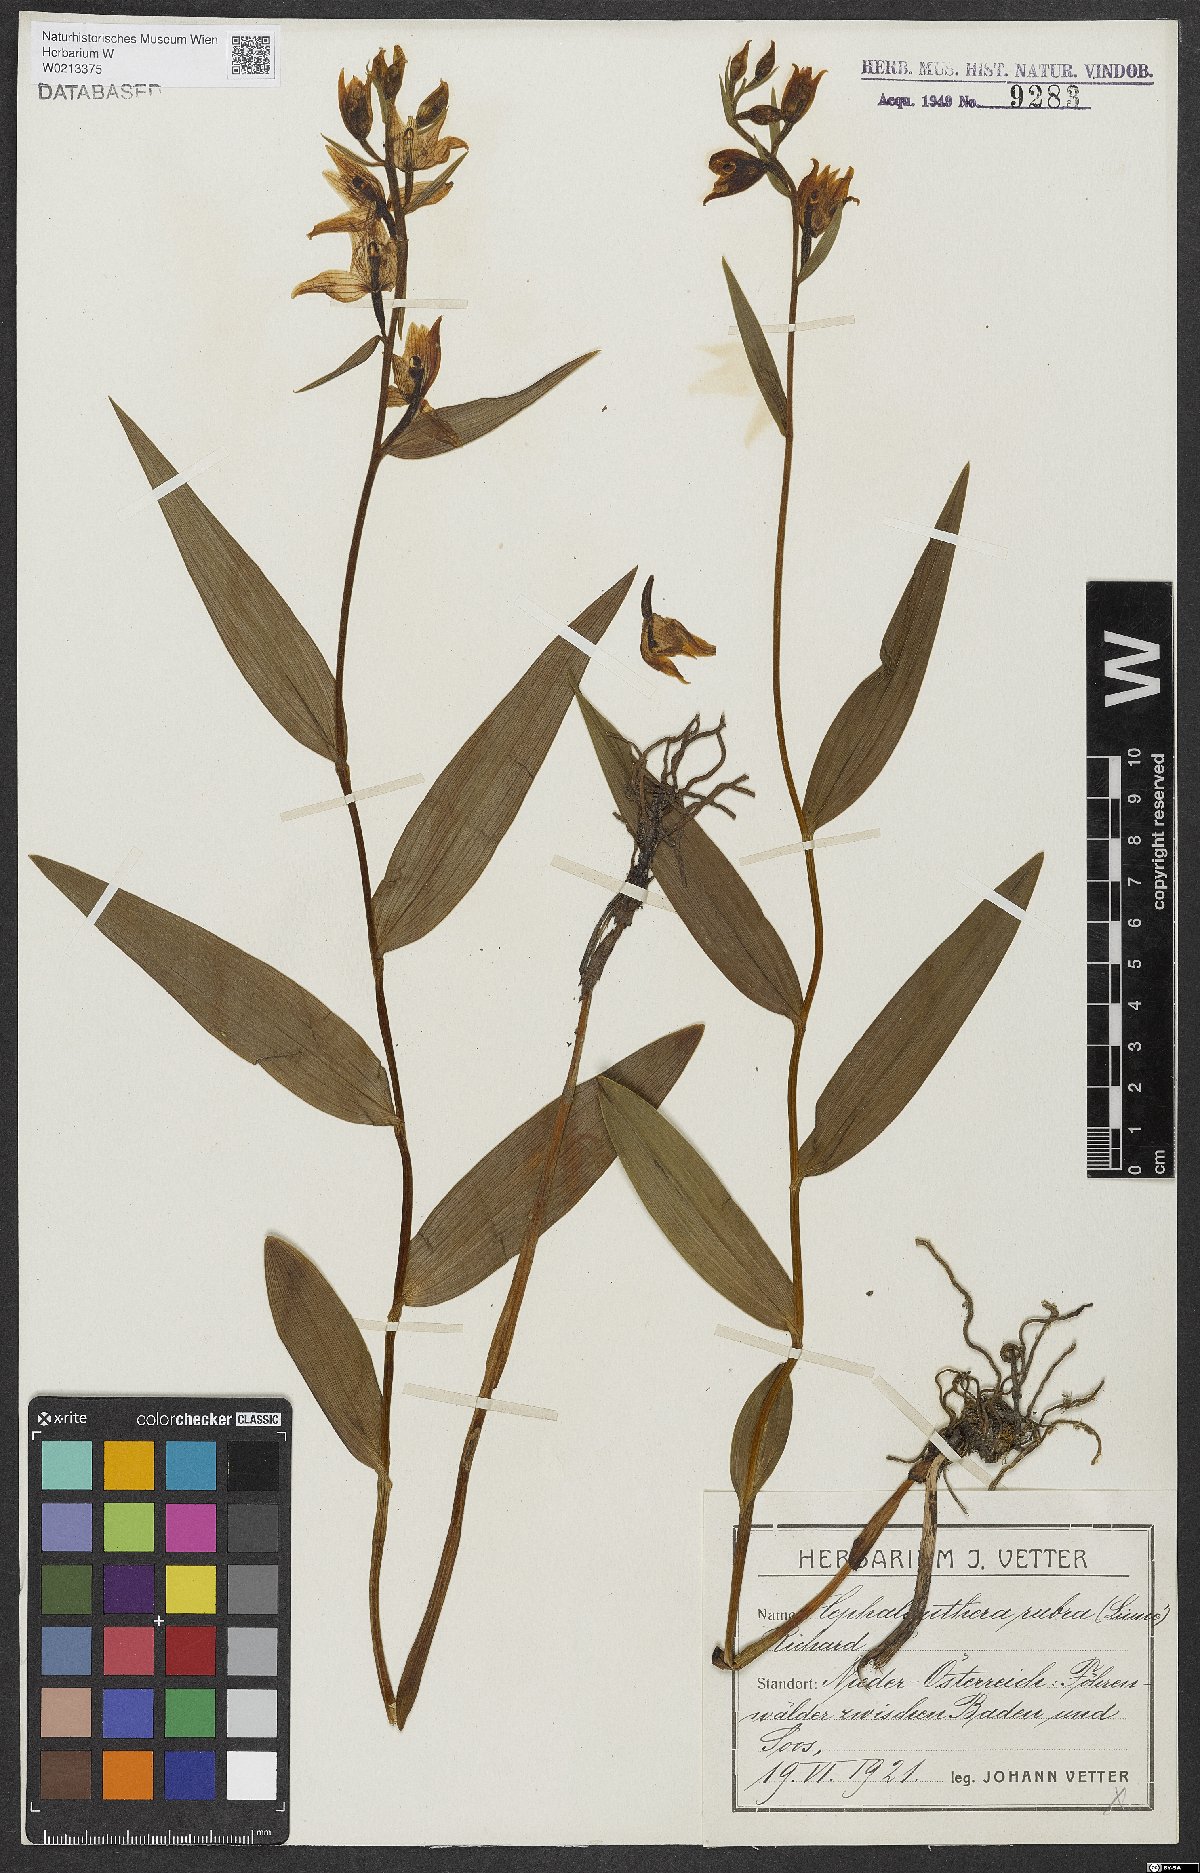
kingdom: Plantae
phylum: Tracheophyta
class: Liliopsida
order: Asparagales
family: Orchidaceae
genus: Cephalanthera
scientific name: Cephalanthera rubra
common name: Red helleborine
